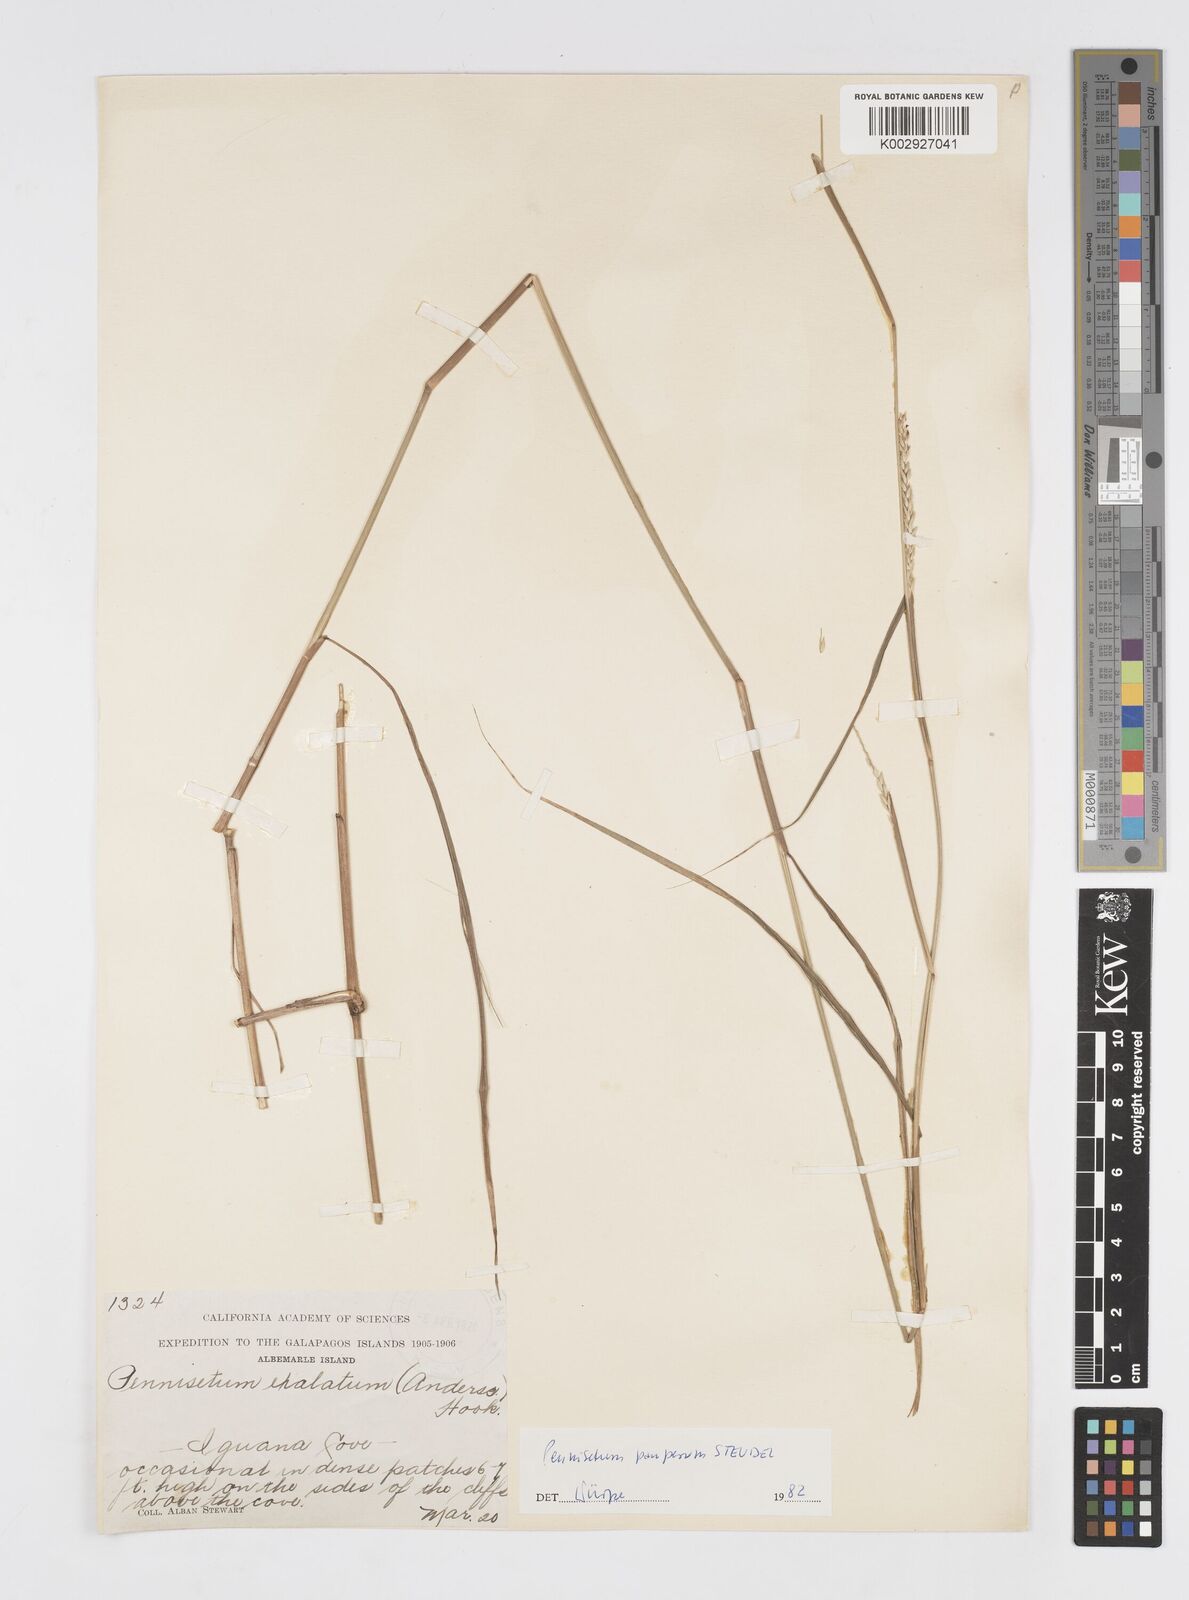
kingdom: Plantae
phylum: Tracheophyta
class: Liliopsida
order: Poales
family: Poaceae
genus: Cenchrus
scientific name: Cenchrus pauper
